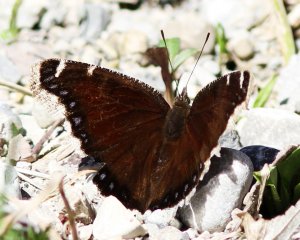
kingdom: Animalia
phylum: Arthropoda
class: Insecta
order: Lepidoptera
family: Nymphalidae
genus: Nymphalis
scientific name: Nymphalis antiopa
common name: Mourning Cloak
